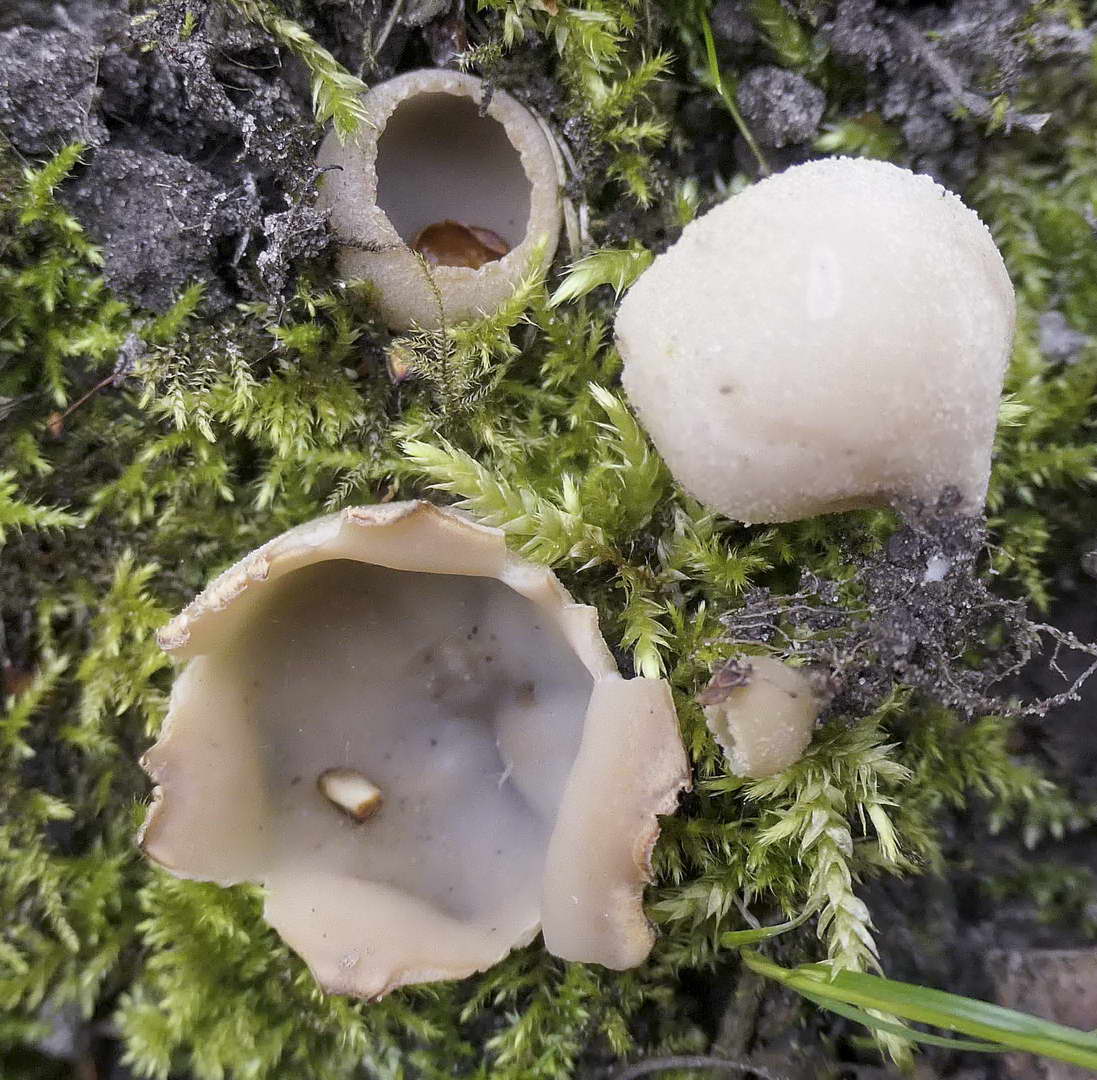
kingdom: Fungi
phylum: Ascomycota
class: Pezizomycetes
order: Pezizales
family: Pyronemataceae
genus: Tarzetta
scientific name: Tarzetta cupularis
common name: gulbrun pokalbæger
